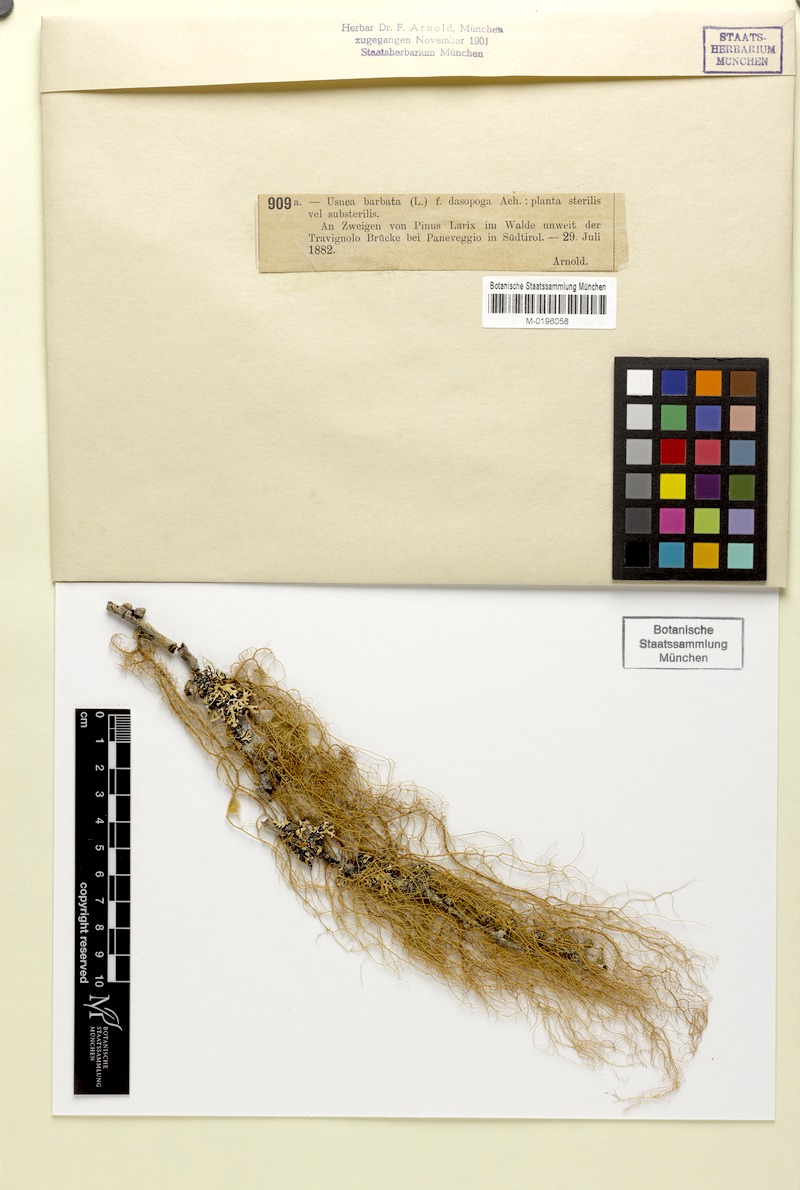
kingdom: Fungi
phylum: Ascomycota
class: Lecanoromycetes
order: Lecanorales
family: Parmeliaceae
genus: Usnea
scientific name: Usnea dasopoga
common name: Fishbone beard lichen
